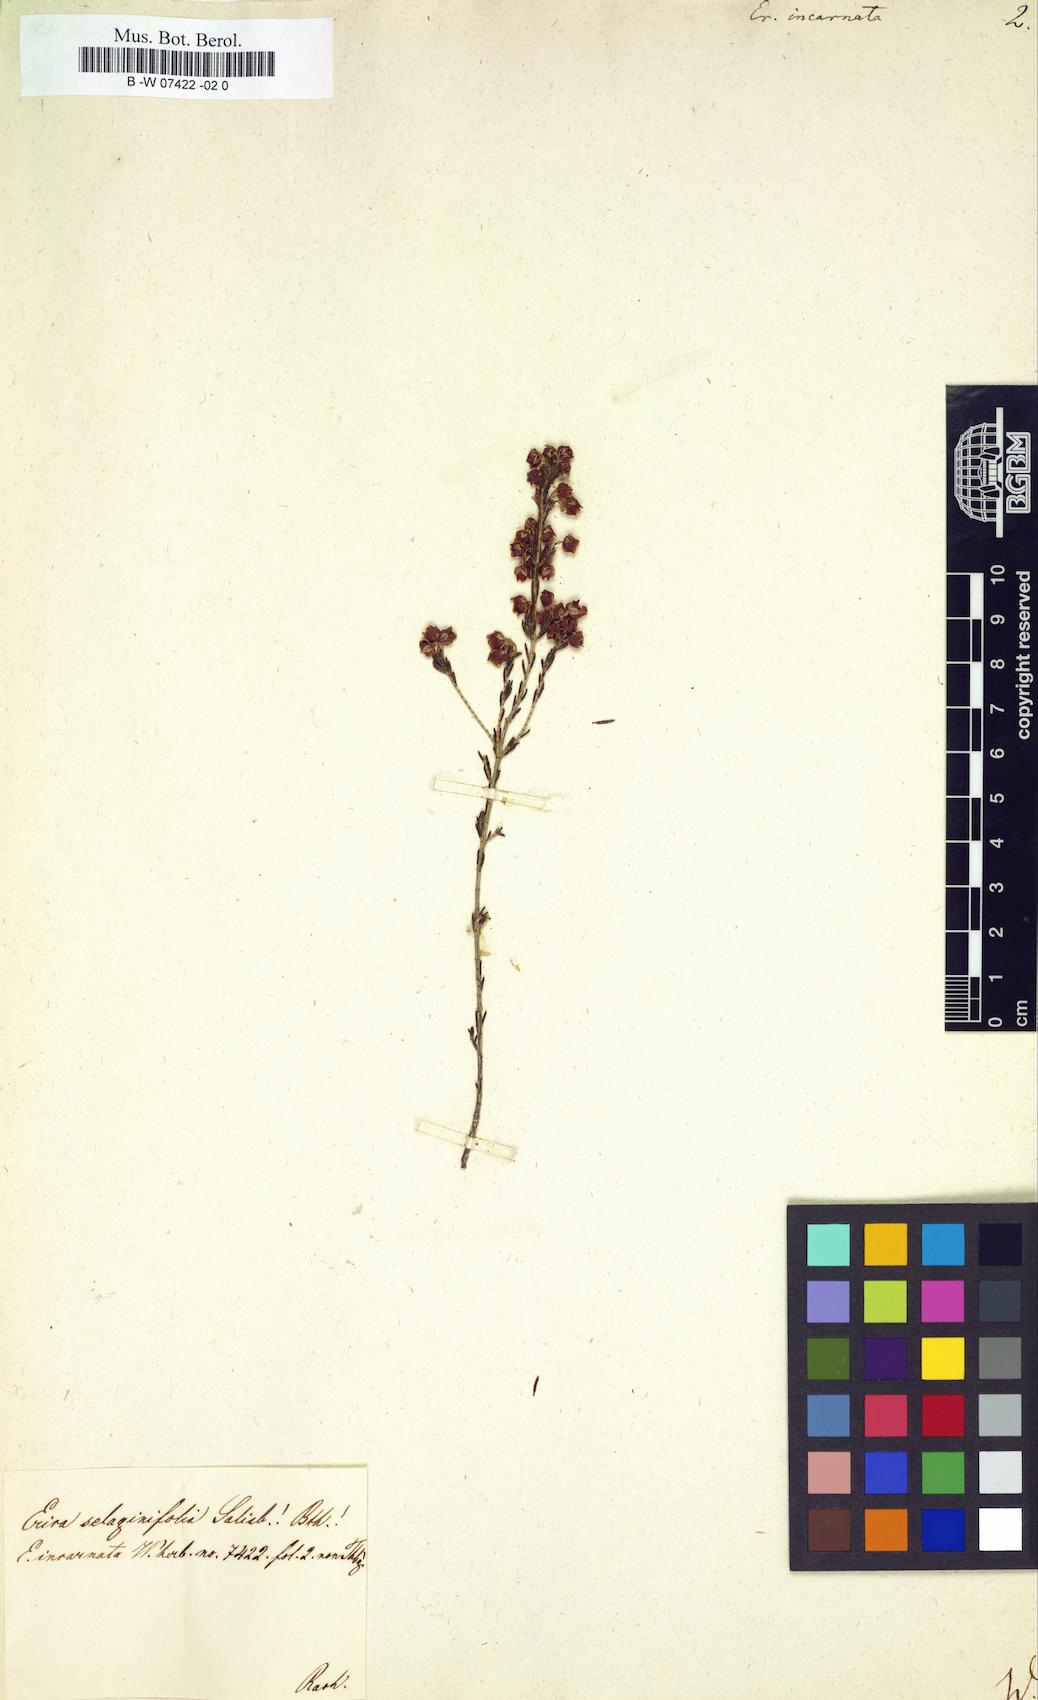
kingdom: Plantae
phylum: Tracheophyta
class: Magnoliopsida
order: Ericales
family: Ericaceae
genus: Erica
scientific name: Erica incarnata
